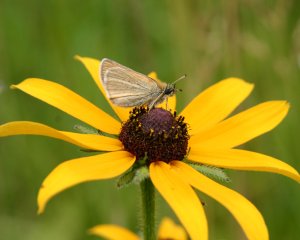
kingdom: Animalia
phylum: Arthropoda
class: Insecta
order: Lepidoptera
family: Hesperiidae
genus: Thymelicus
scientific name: Thymelicus lineola
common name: European Skipper
